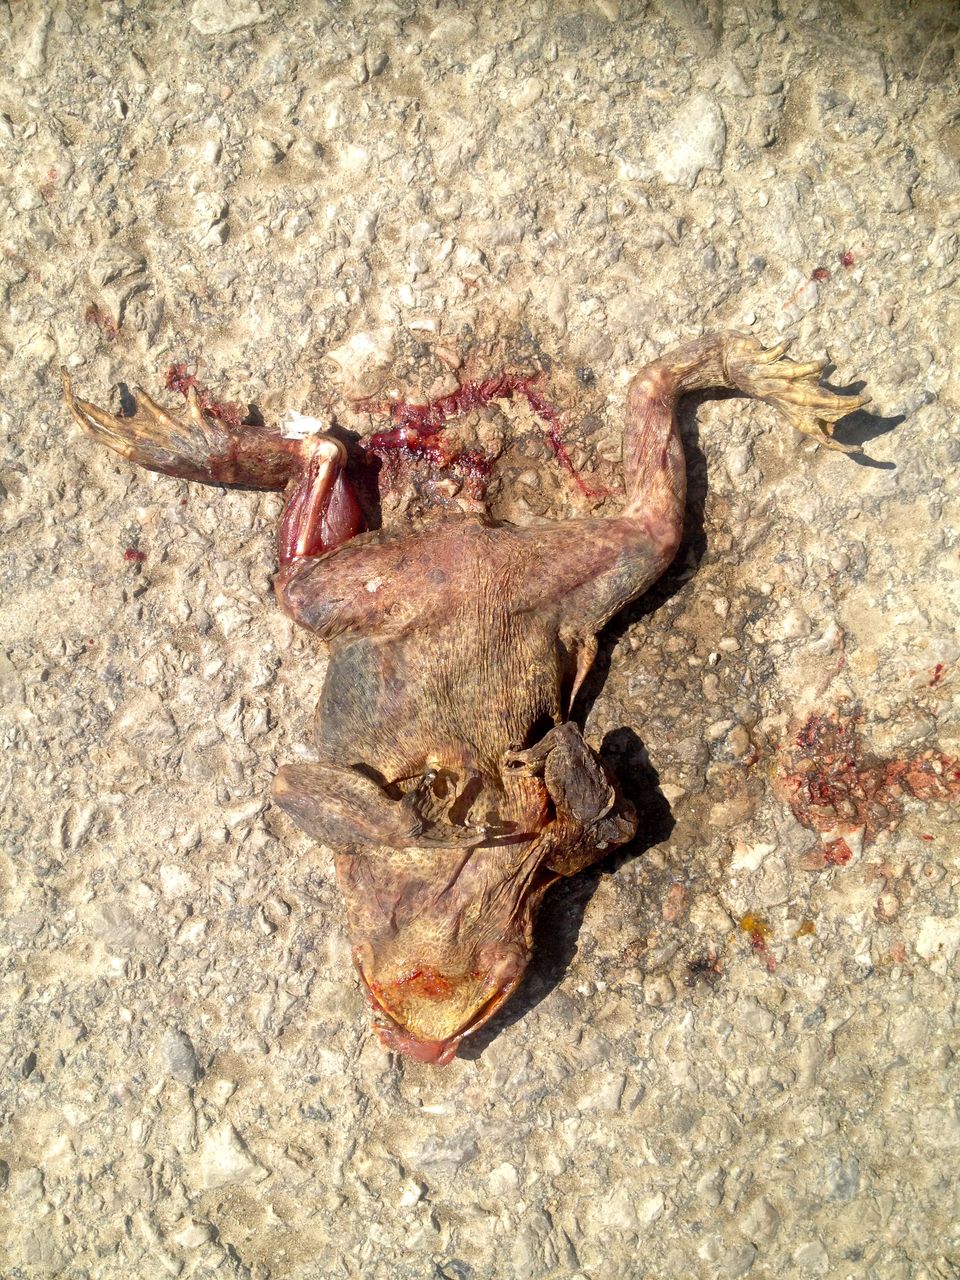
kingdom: Animalia
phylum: Chordata
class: Amphibia
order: Anura
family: Bufonidae
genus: Bufo
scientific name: Bufo bufo
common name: Common toad
